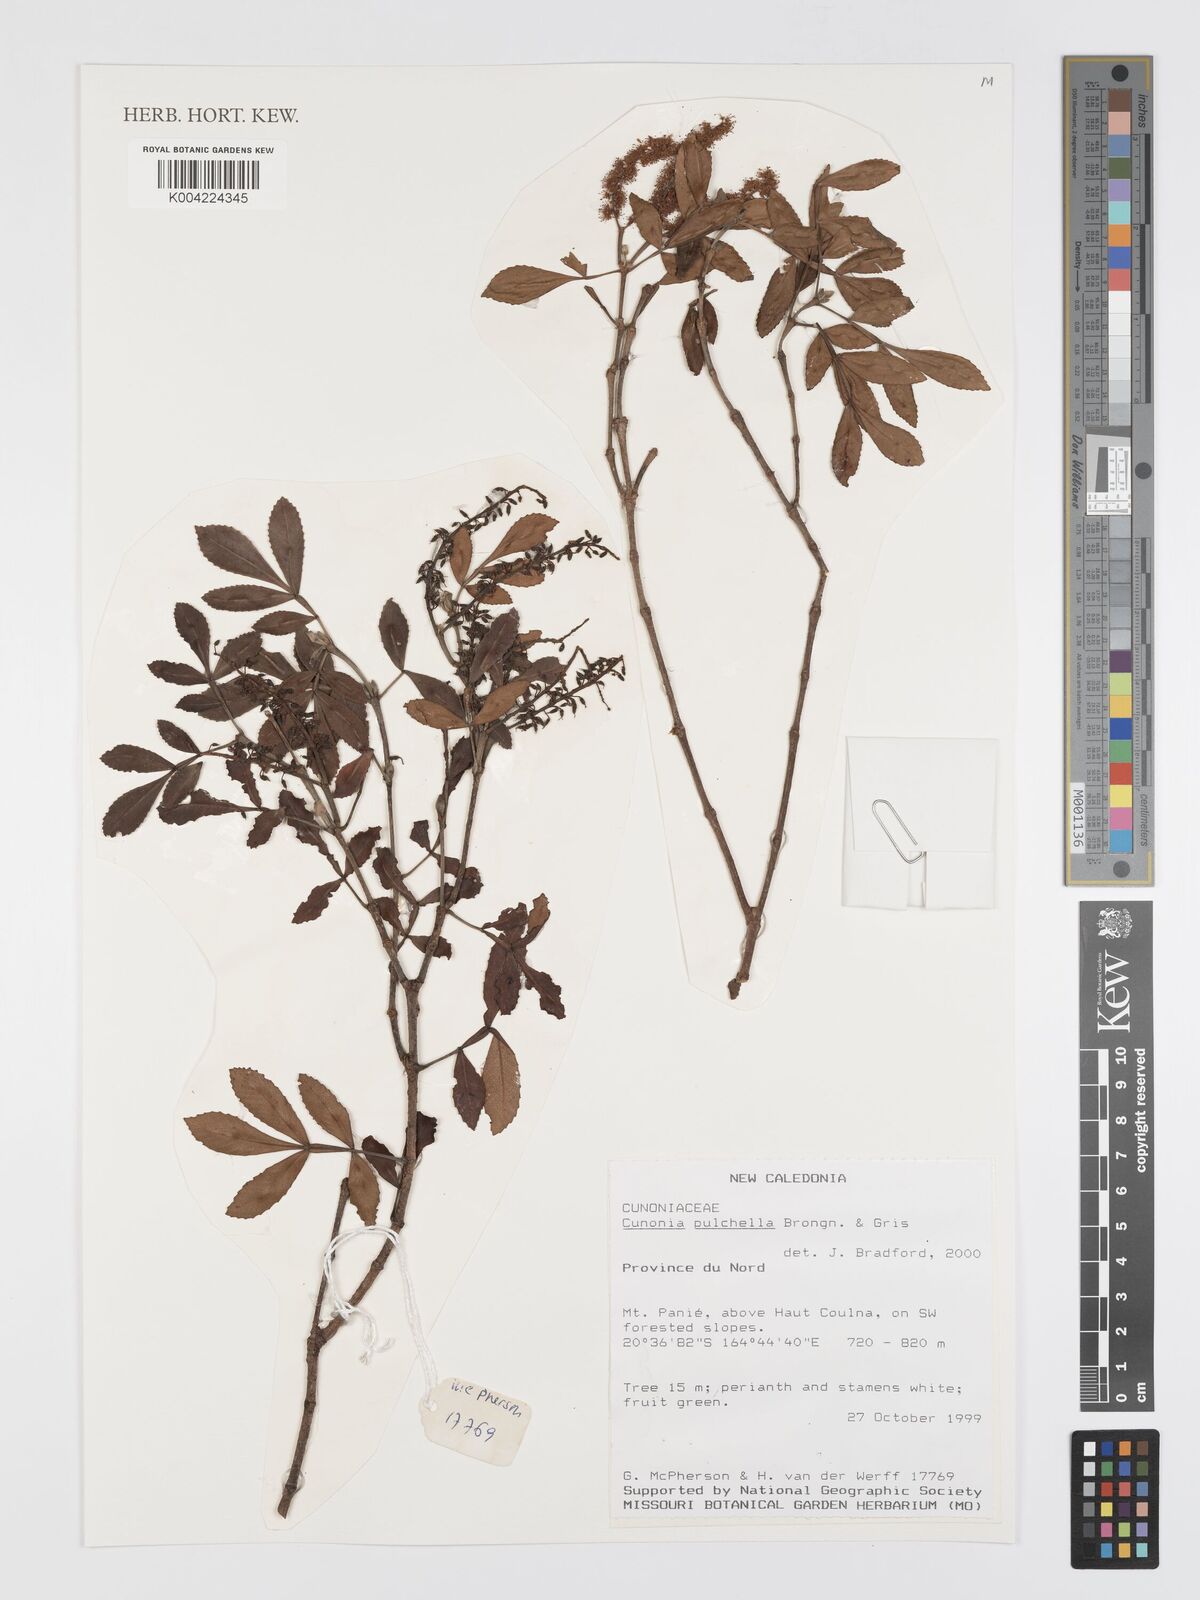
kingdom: Plantae
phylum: Tracheophyta
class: Magnoliopsida
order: Oxalidales
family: Cunoniaceae
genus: Cunonia
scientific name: Cunonia pulchella
